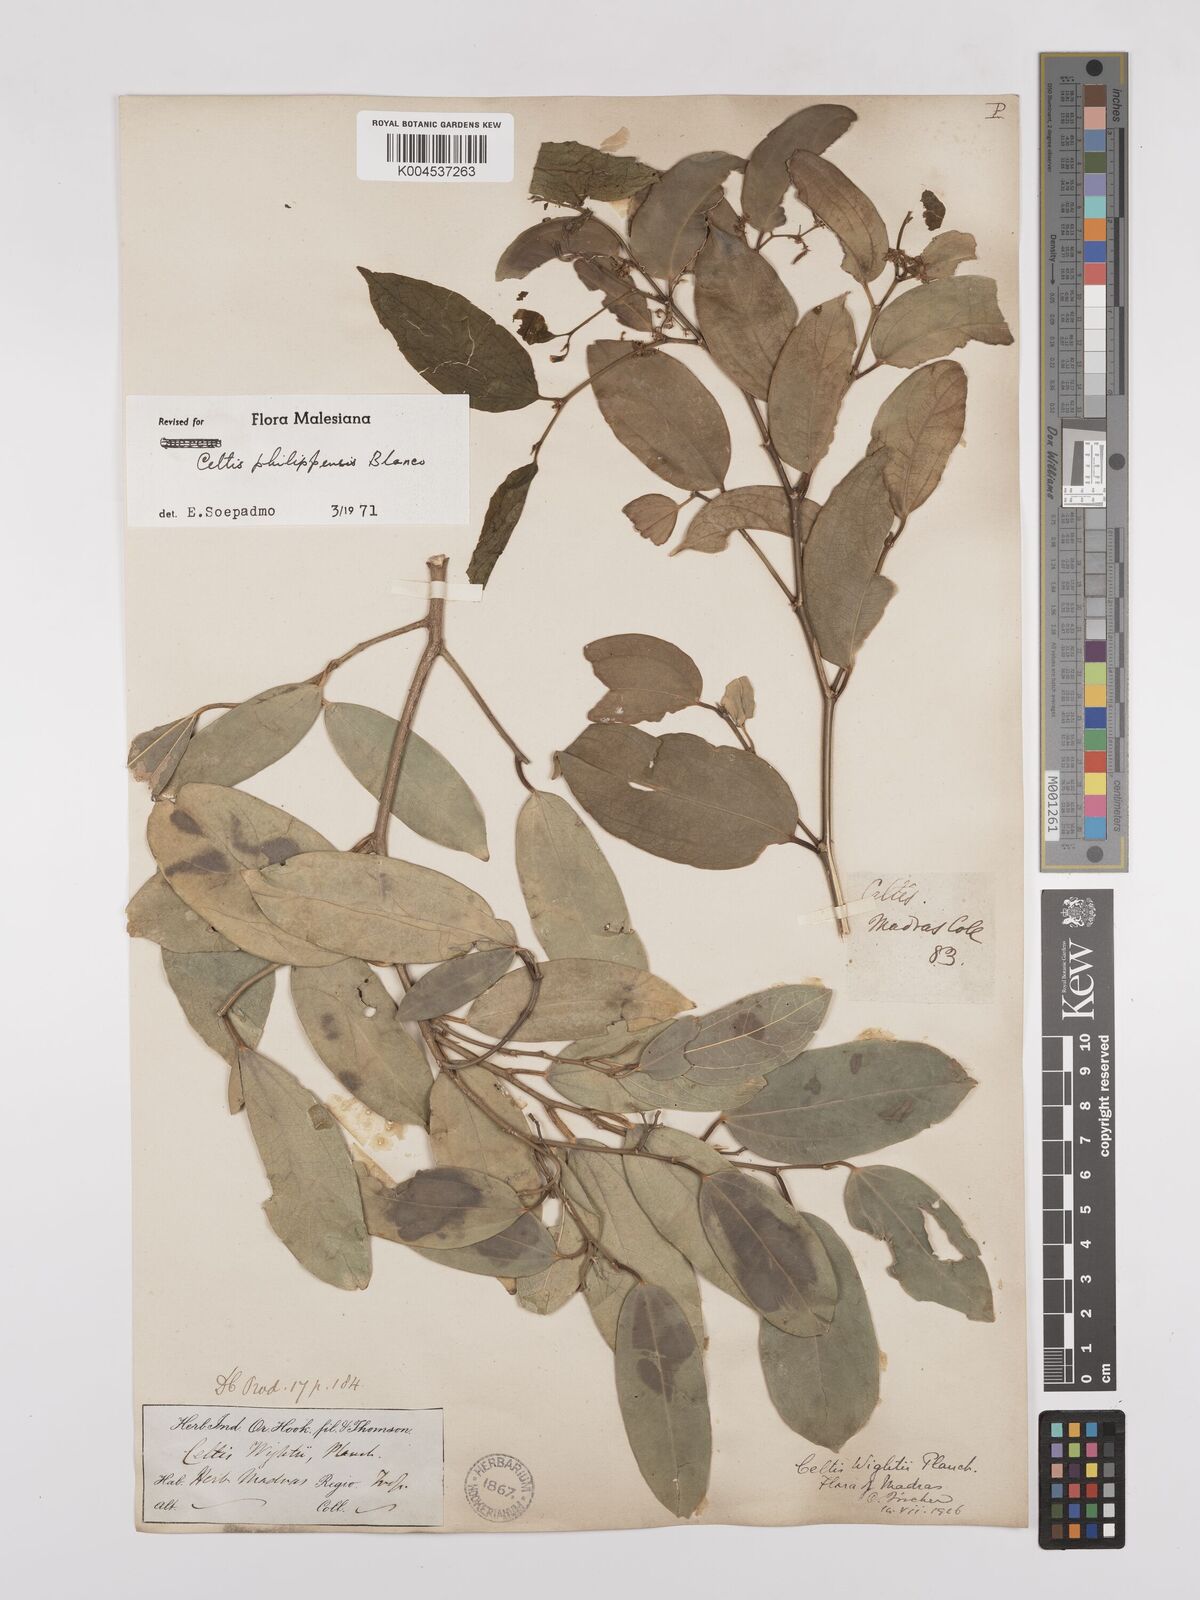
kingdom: Plantae
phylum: Tracheophyta
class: Magnoliopsida
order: Rosales
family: Cannabaceae
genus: Celtis
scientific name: Celtis philippensis
